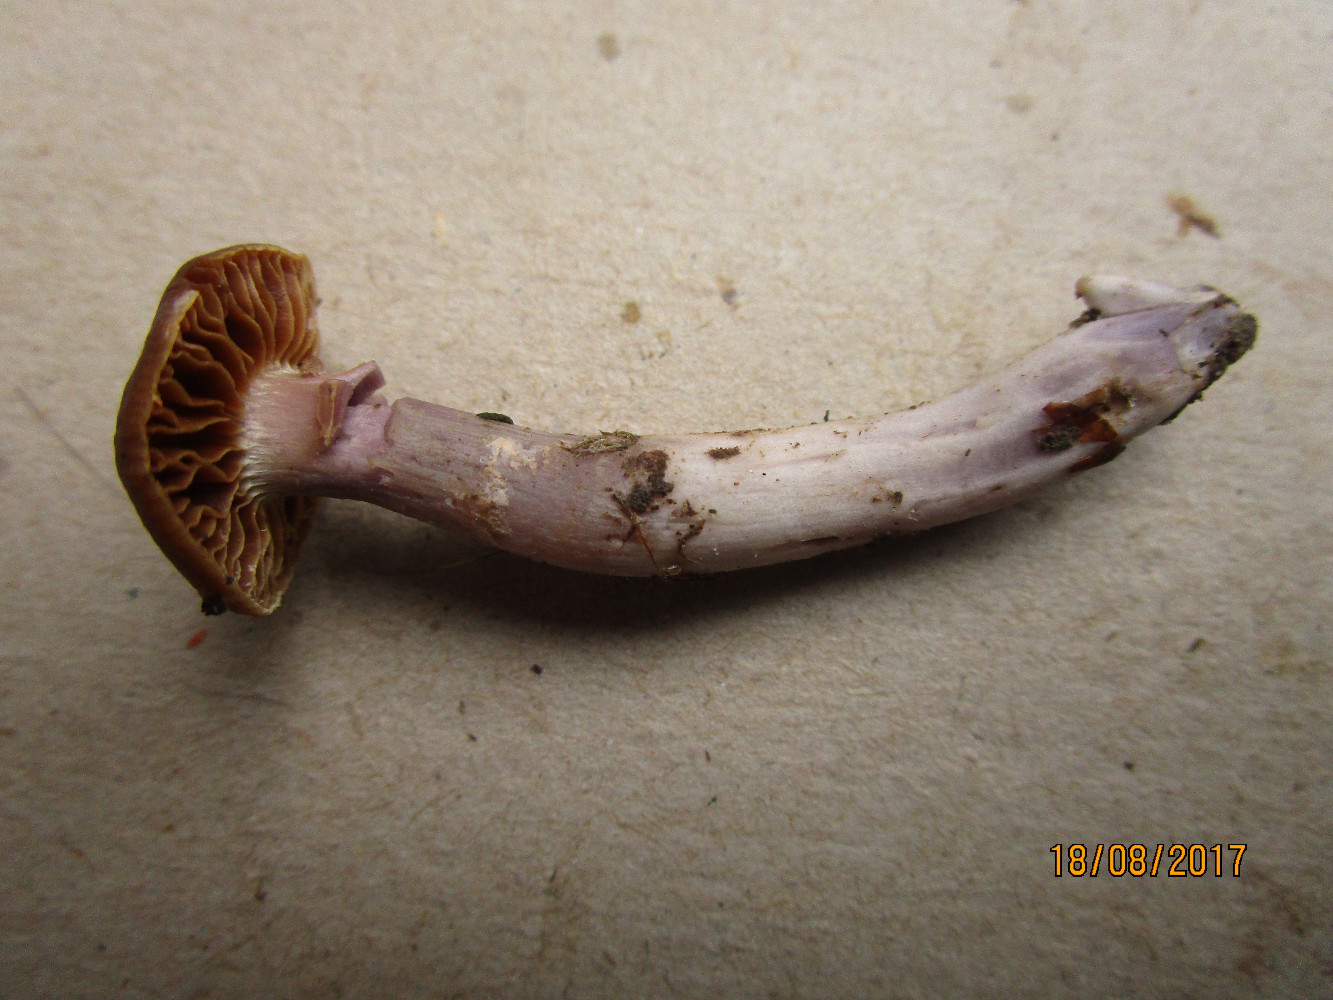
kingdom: Fungi
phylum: Basidiomycota
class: Agaricomycetes
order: Agaricales
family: Cortinariaceae
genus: Cortinarius
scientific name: Cortinarius cagei
